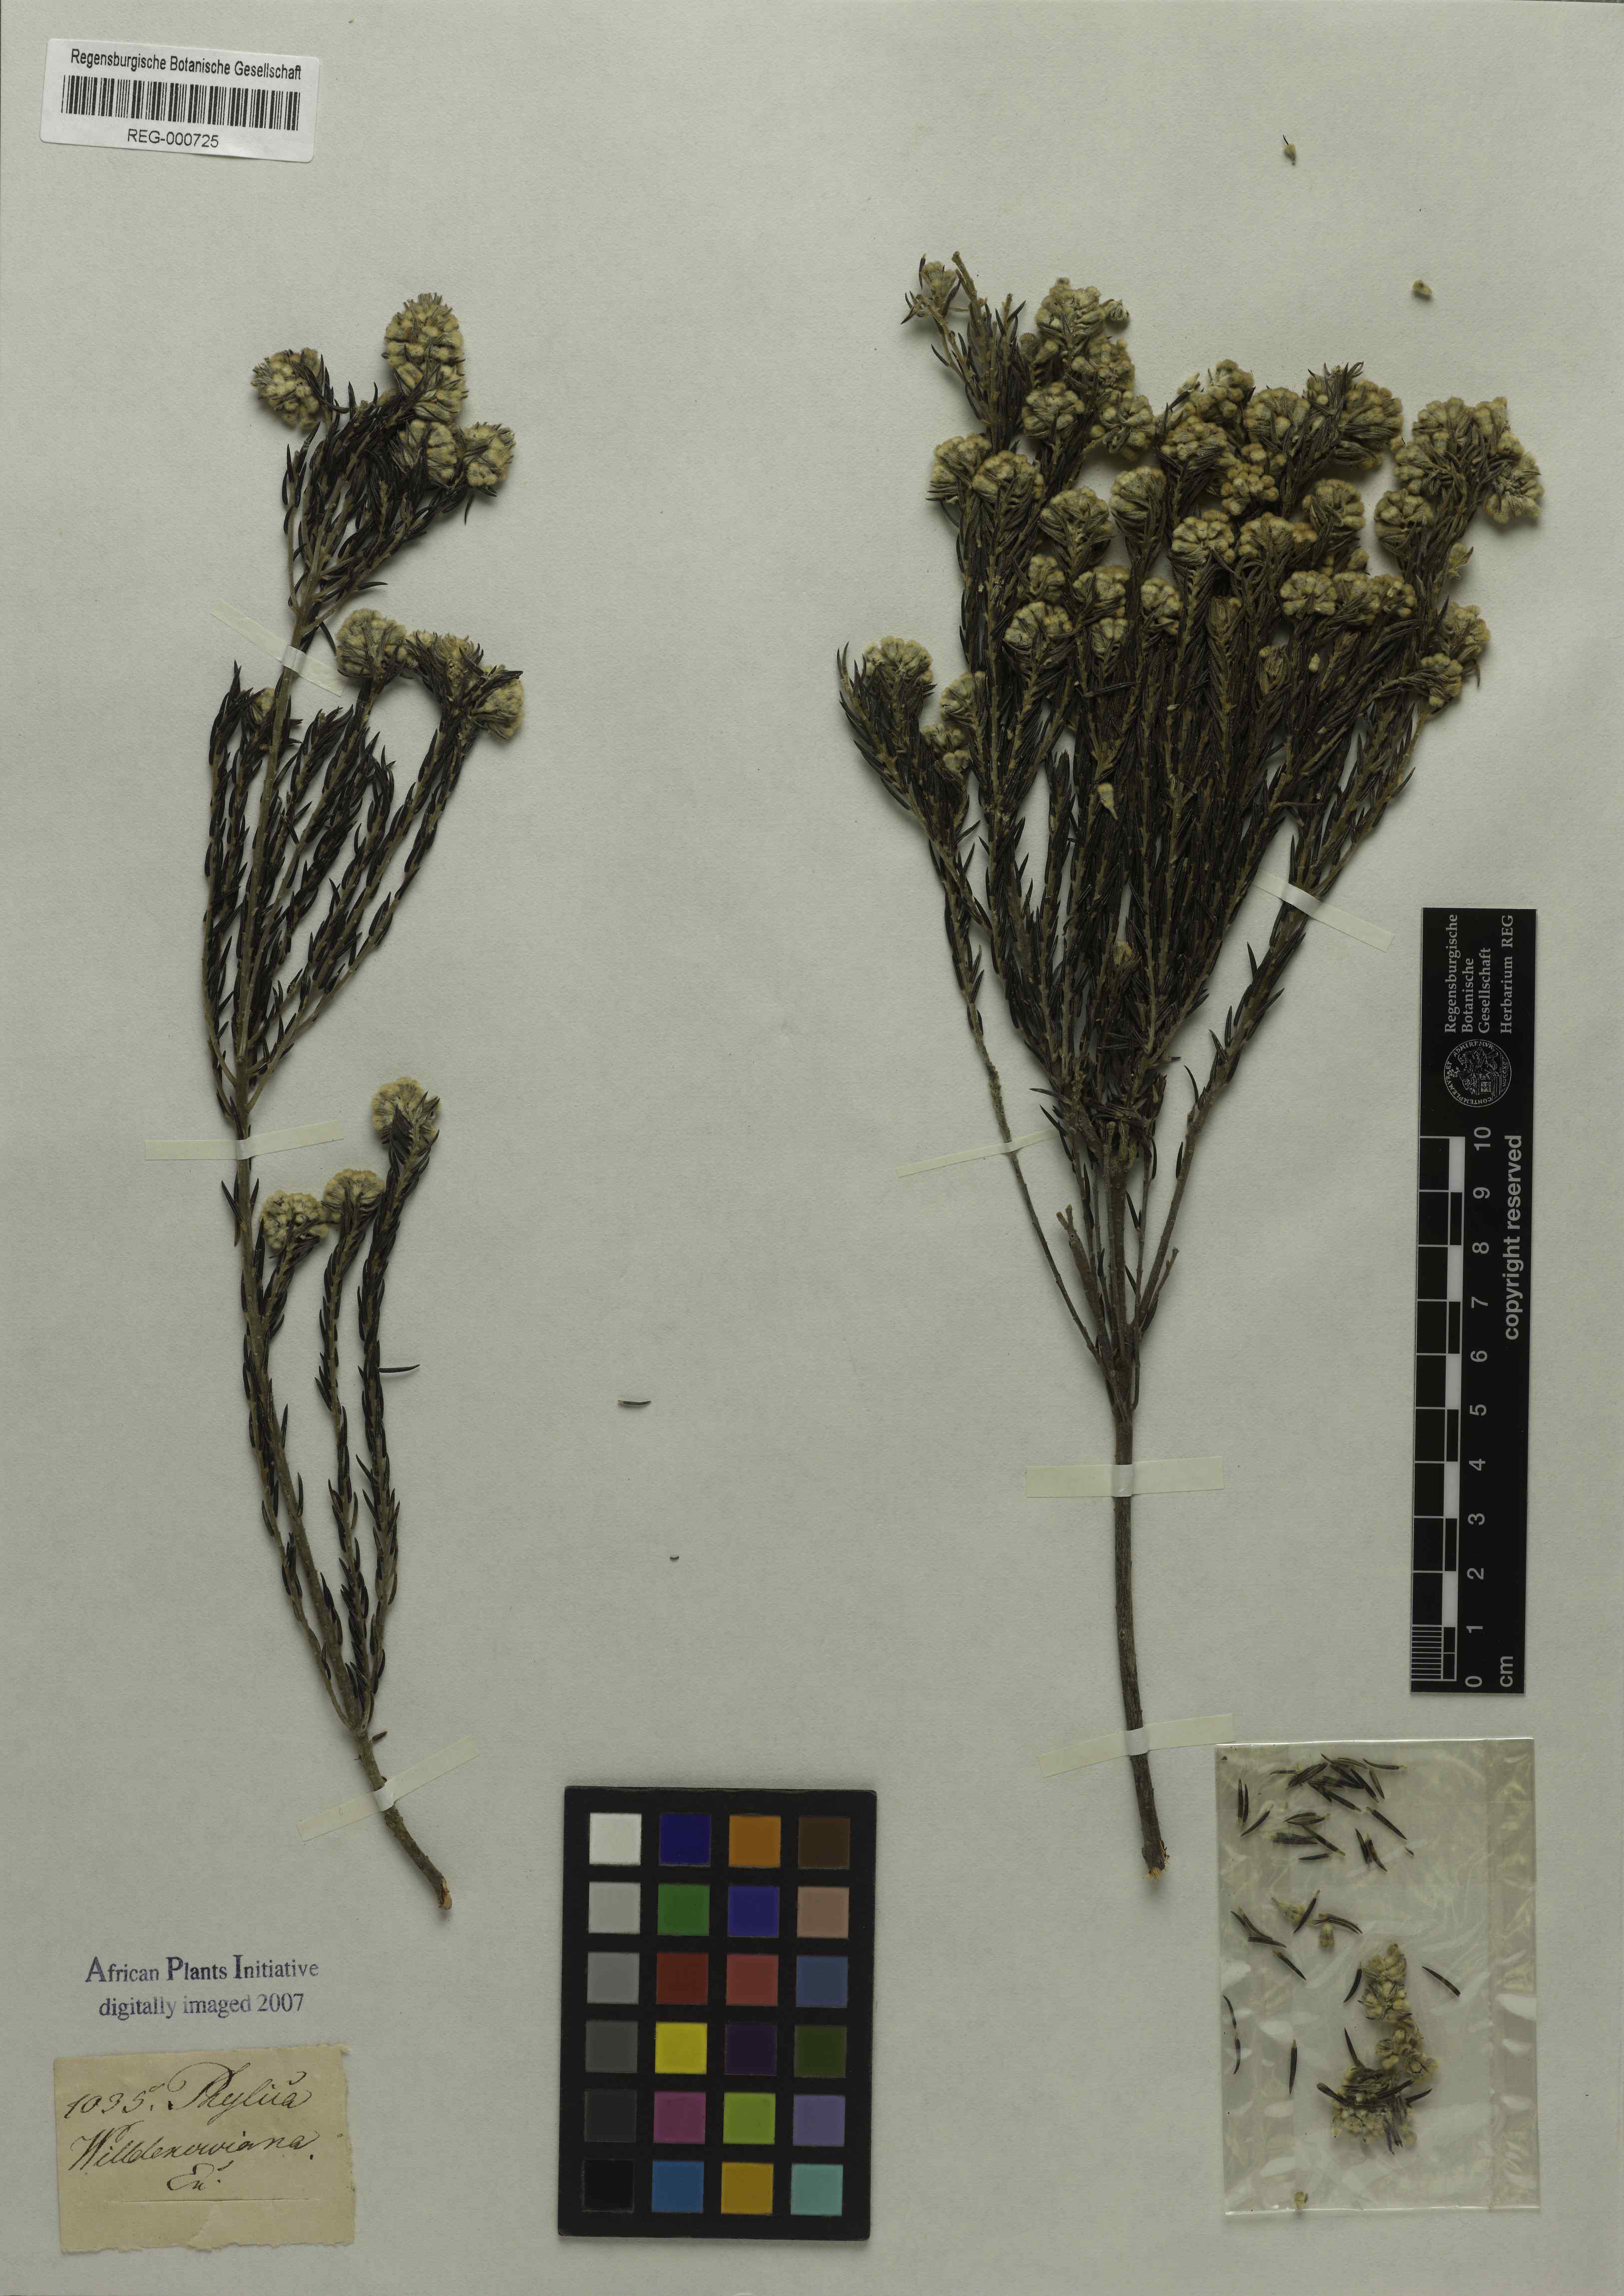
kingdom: Plantae
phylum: Tracheophyta
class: Magnoliopsida
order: Rosales
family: Rhamnaceae
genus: Phylica
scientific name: Phylica willdenowiana
